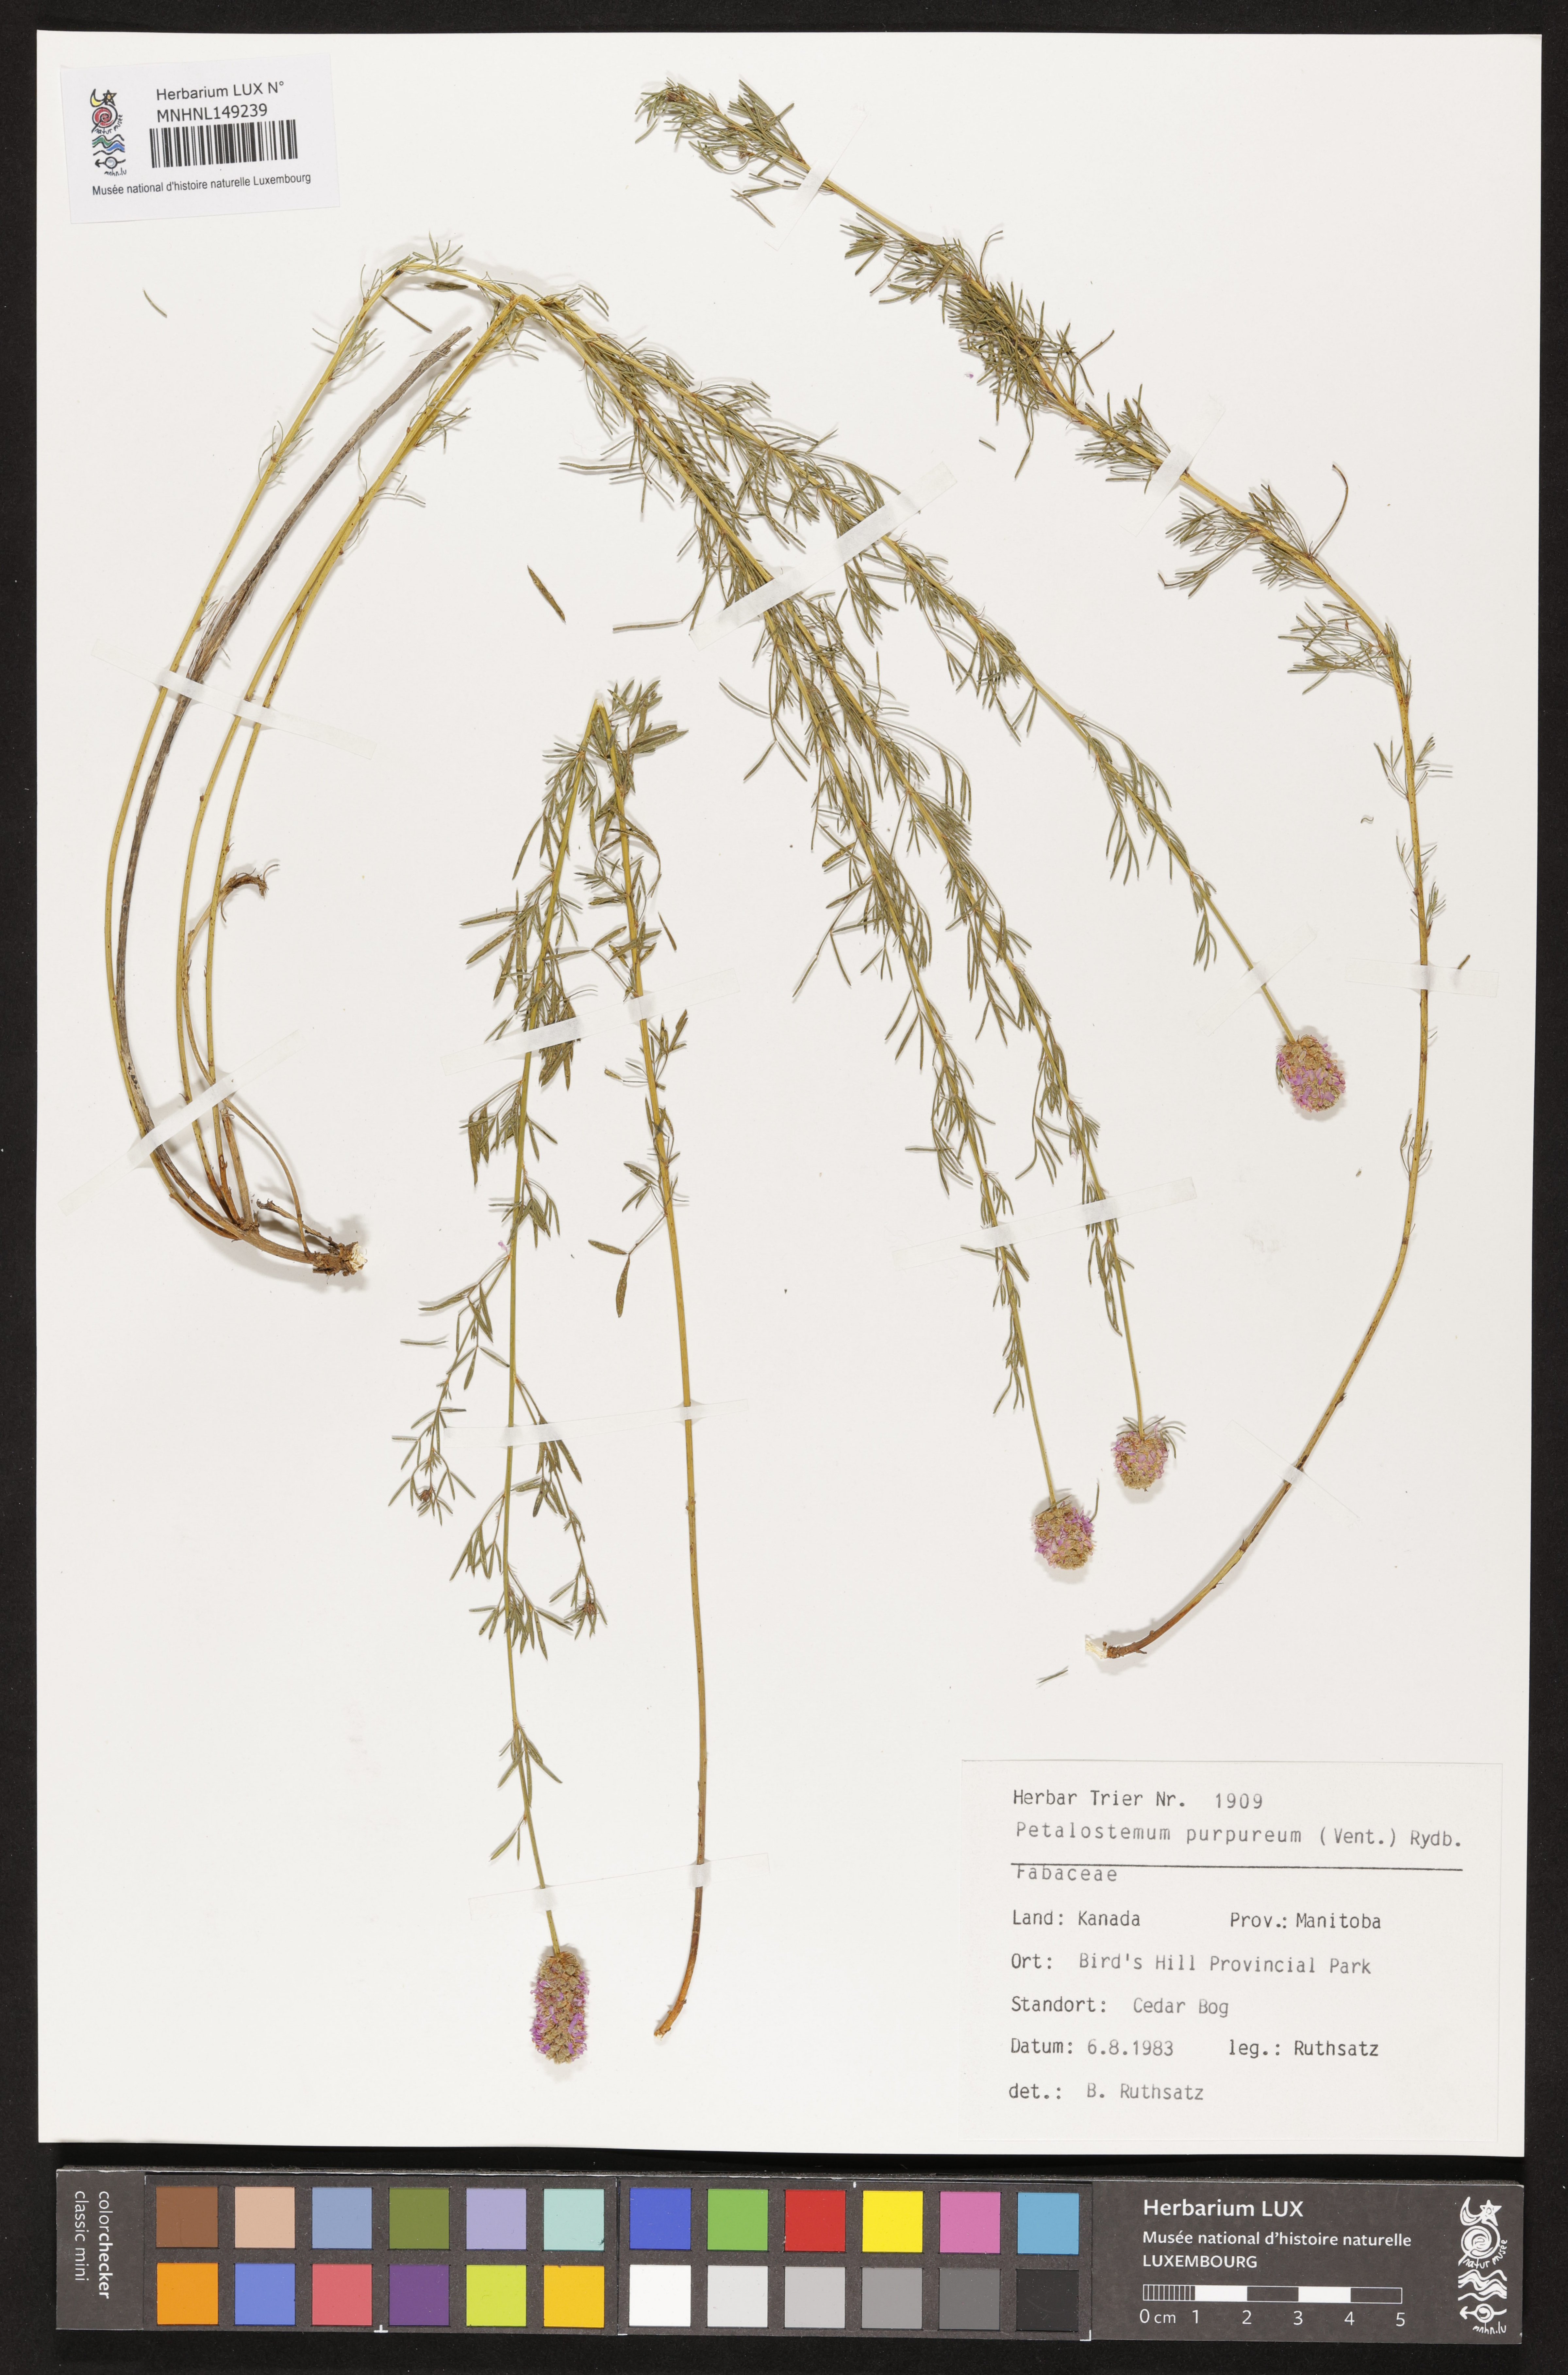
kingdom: Plantae
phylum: Tracheophyta
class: Magnoliopsida
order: Fabales
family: Fabaceae
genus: Dalea
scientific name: Dalea purpurea
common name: Purple prairie-clover
